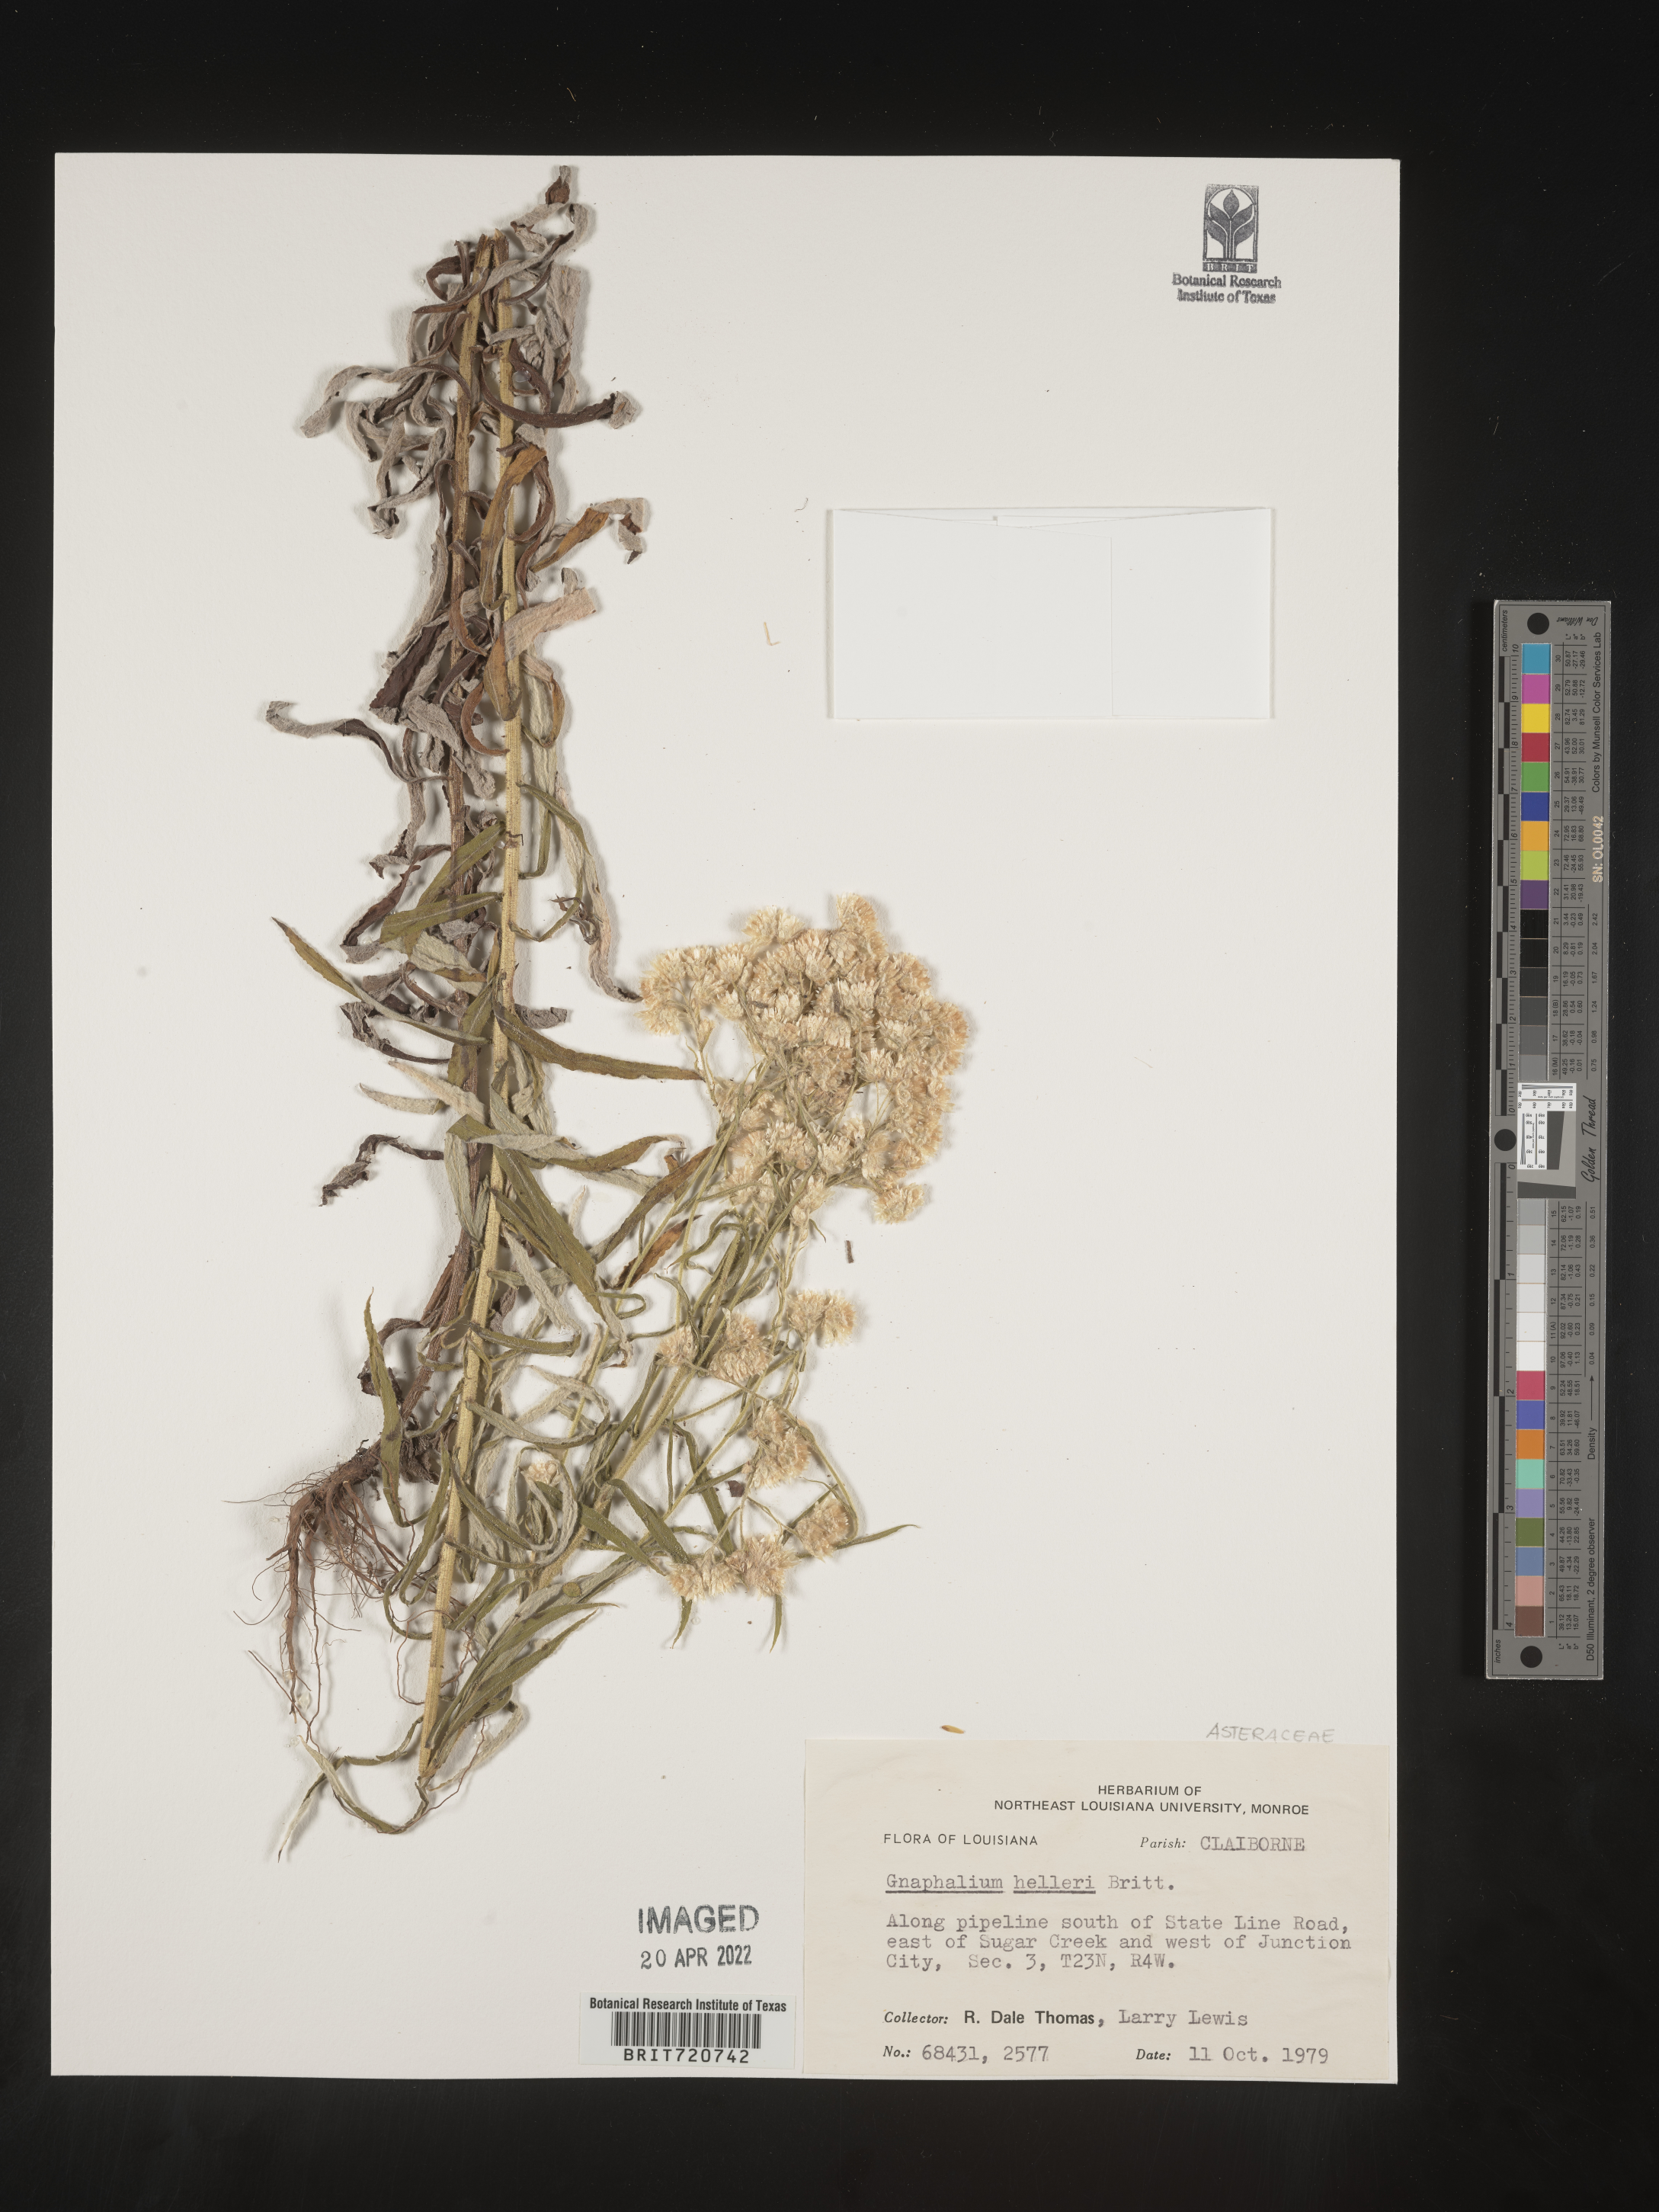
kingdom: Plantae
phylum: Tracheophyta
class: Magnoliopsida
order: Asterales
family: Asteraceae
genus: Gnaphalium
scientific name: Gnaphalium
